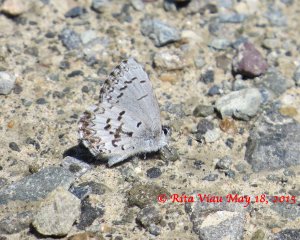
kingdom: Animalia
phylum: Arthropoda
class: Insecta
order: Lepidoptera
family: Lycaenidae
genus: Celastrina
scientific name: Celastrina lucia
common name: Northern Spring Azure
